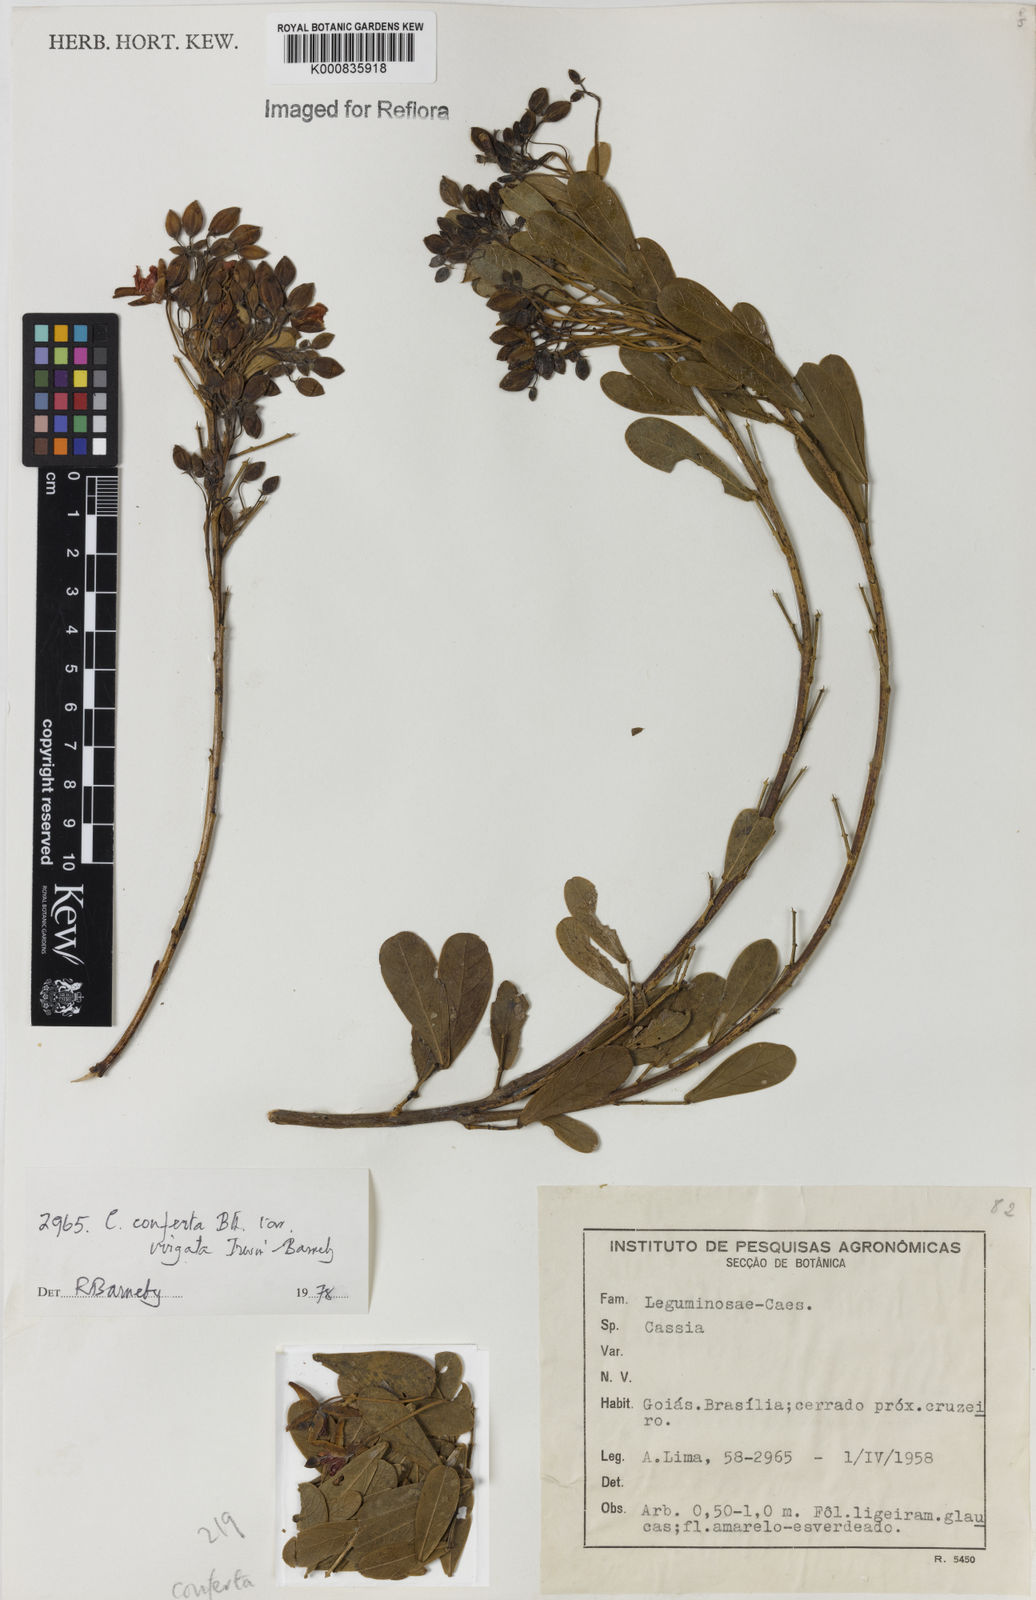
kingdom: Plantae
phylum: Tracheophyta
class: Magnoliopsida
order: Fabales
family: Fabaceae
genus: Chamaecrista
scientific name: Chamaecrista conferta
